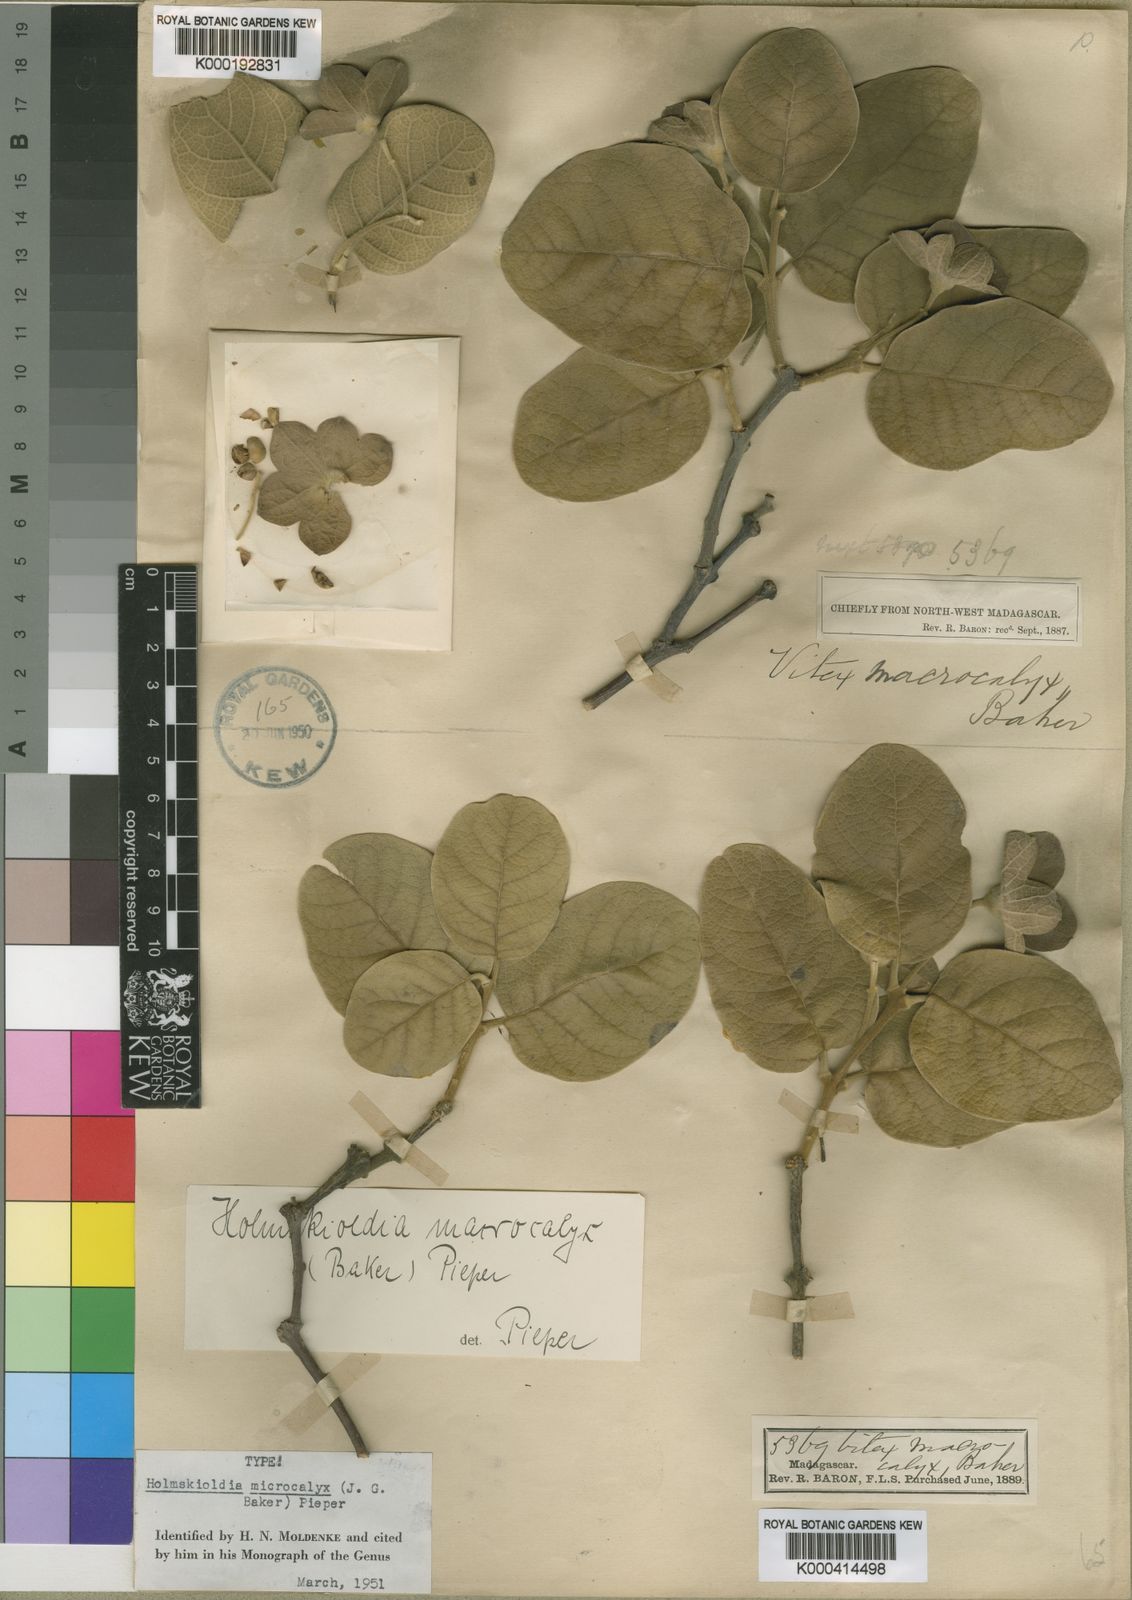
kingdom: Plantae
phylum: Tracheophyta
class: Magnoliopsida
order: Lamiales
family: Lamiaceae
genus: Karomia
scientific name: Karomia macrocalyx
